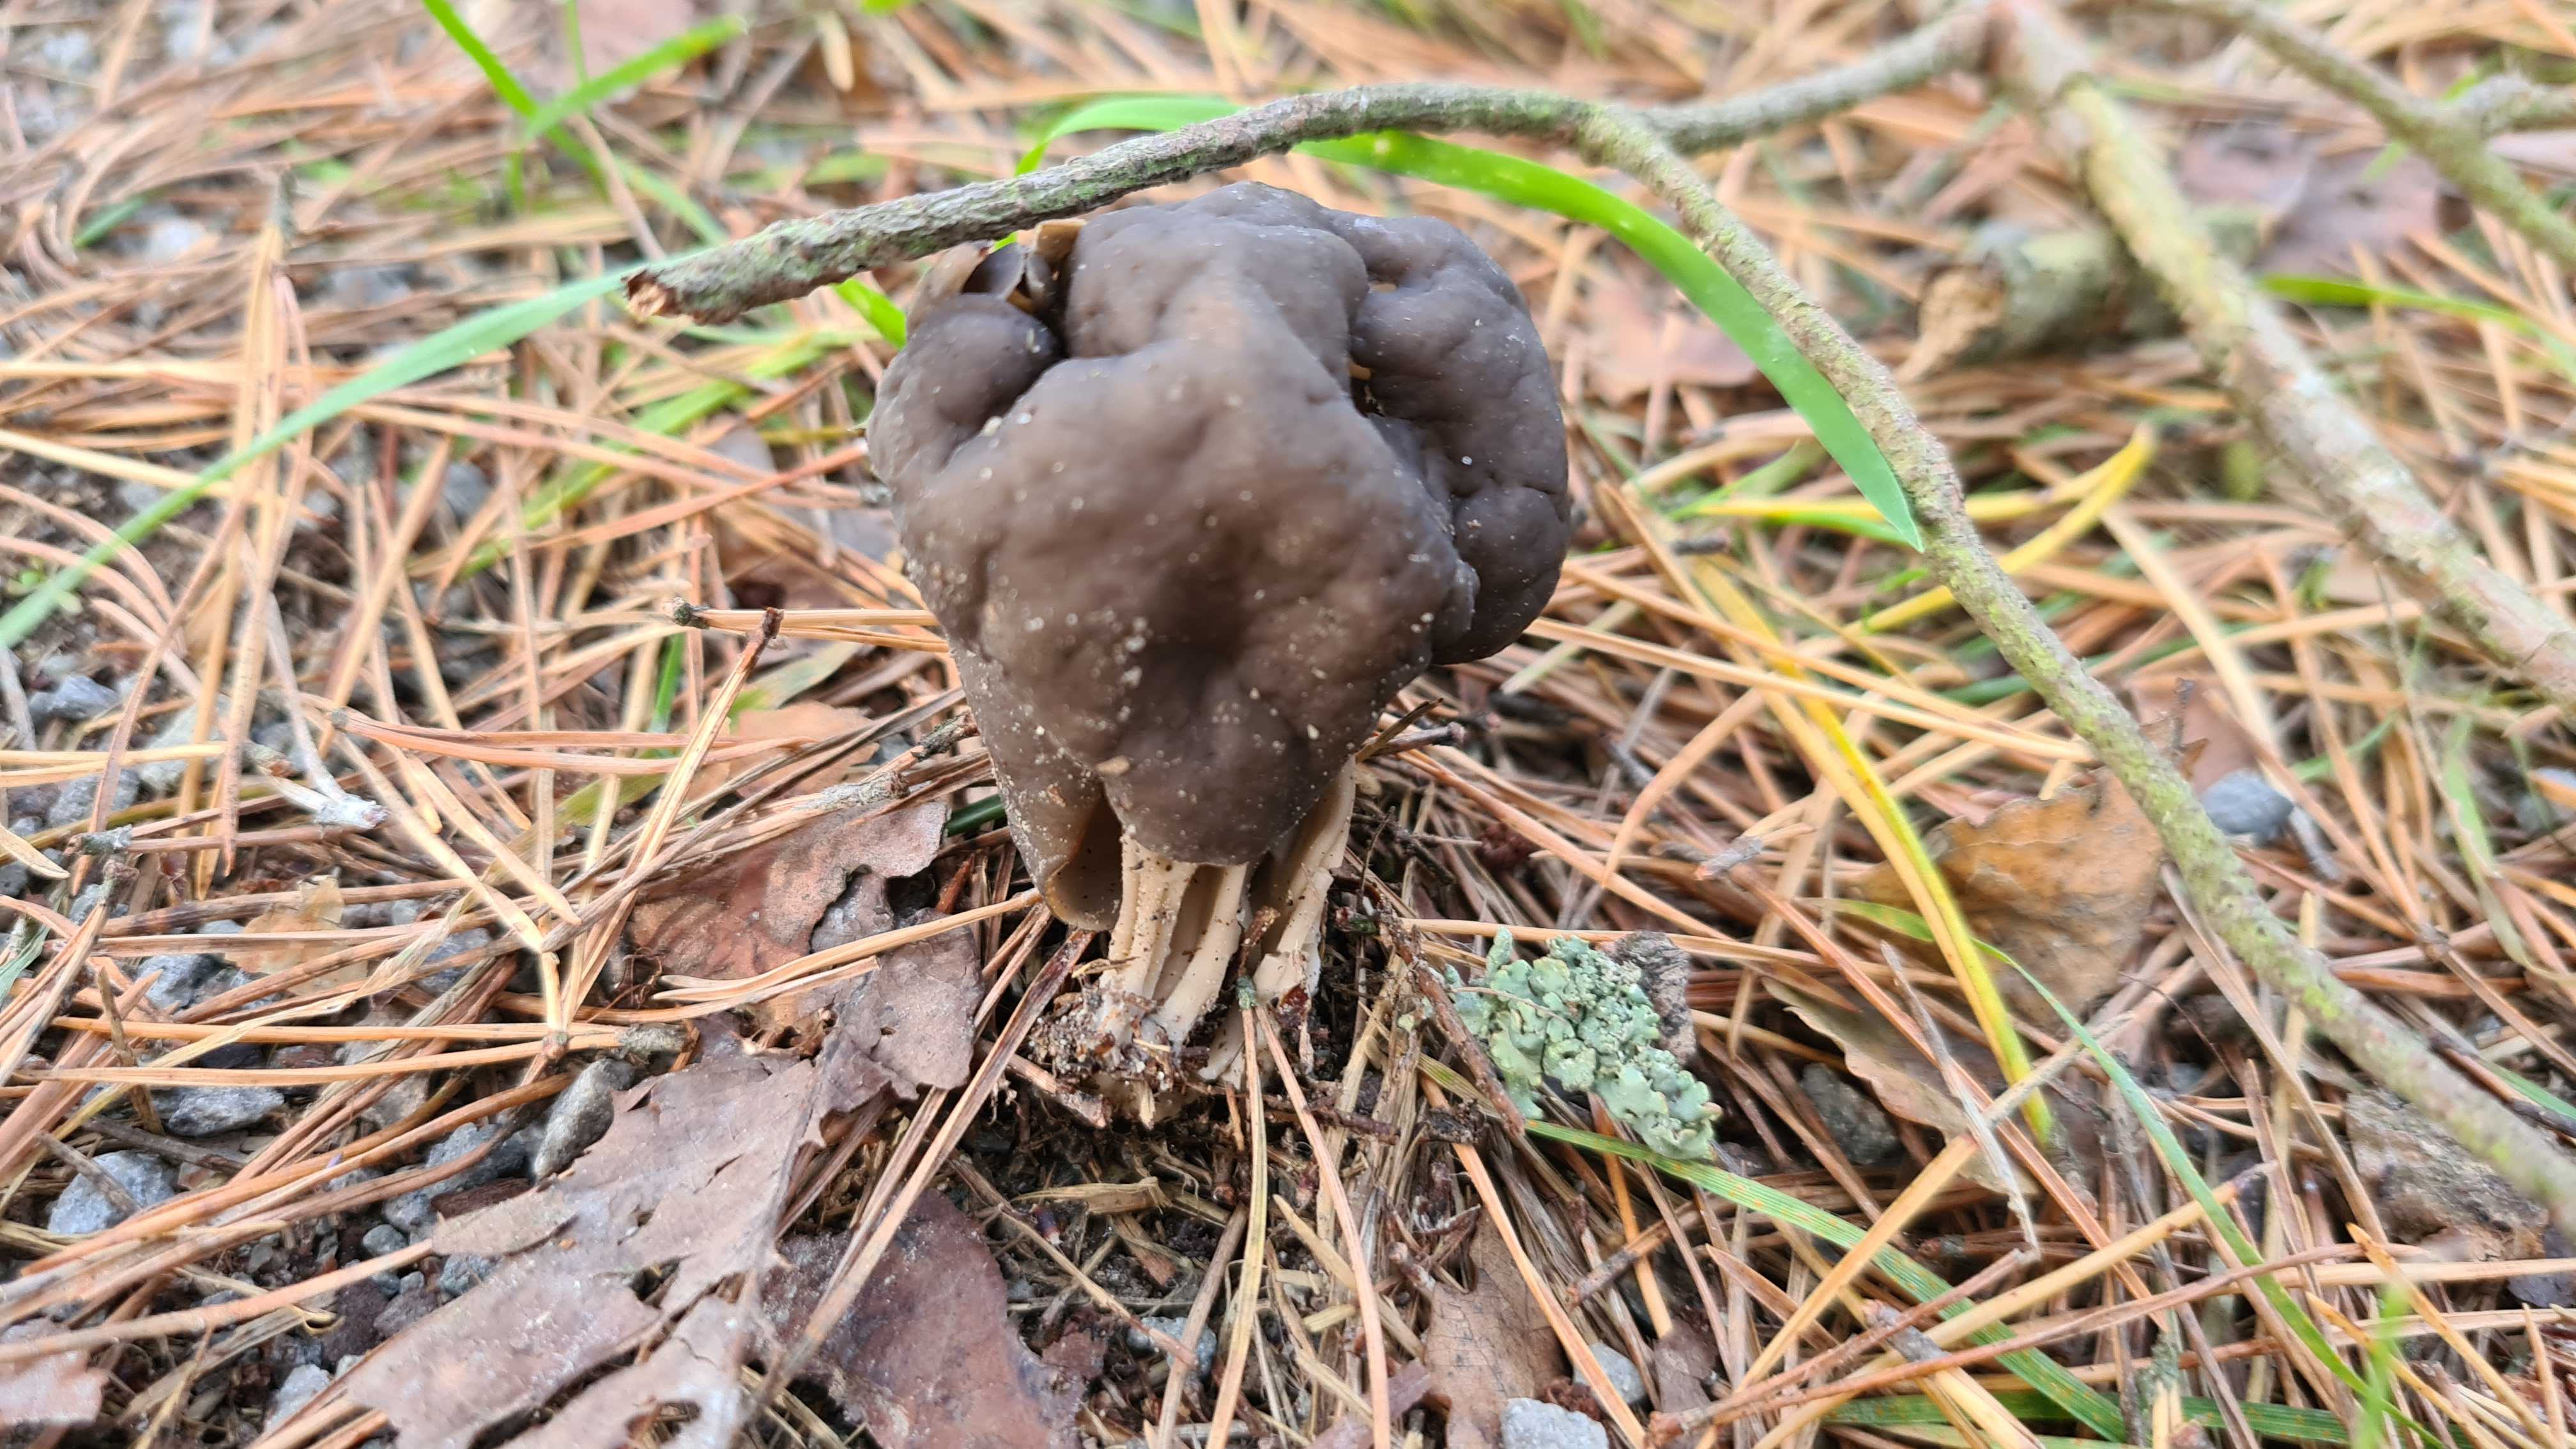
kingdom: Fungi
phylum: Ascomycota
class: Pezizomycetes
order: Pezizales
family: Helvellaceae
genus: Helvella
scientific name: Helvella lacunosa
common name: grubet foldhat
